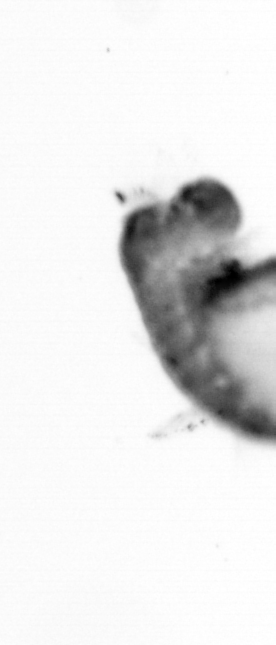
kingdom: Animalia
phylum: Annelida
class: Polychaeta
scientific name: Polychaeta
